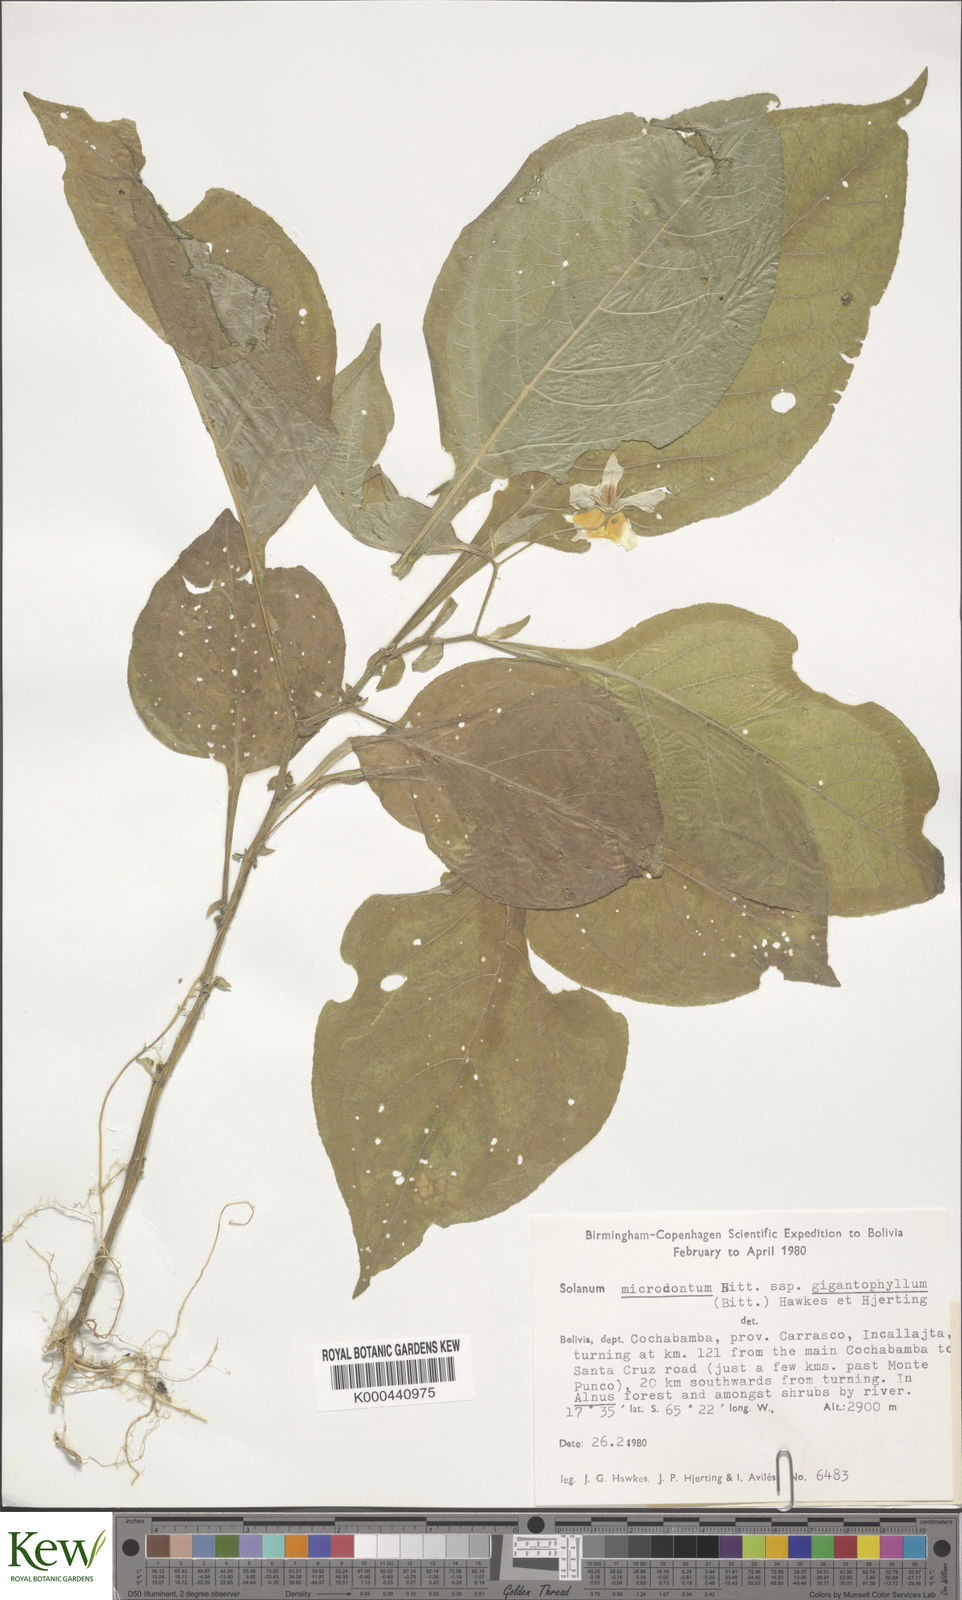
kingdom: Plantae
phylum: Tracheophyta
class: Magnoliopsida
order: Solanales
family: Solanaceae
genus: Solanum
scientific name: Solanum microdontum
